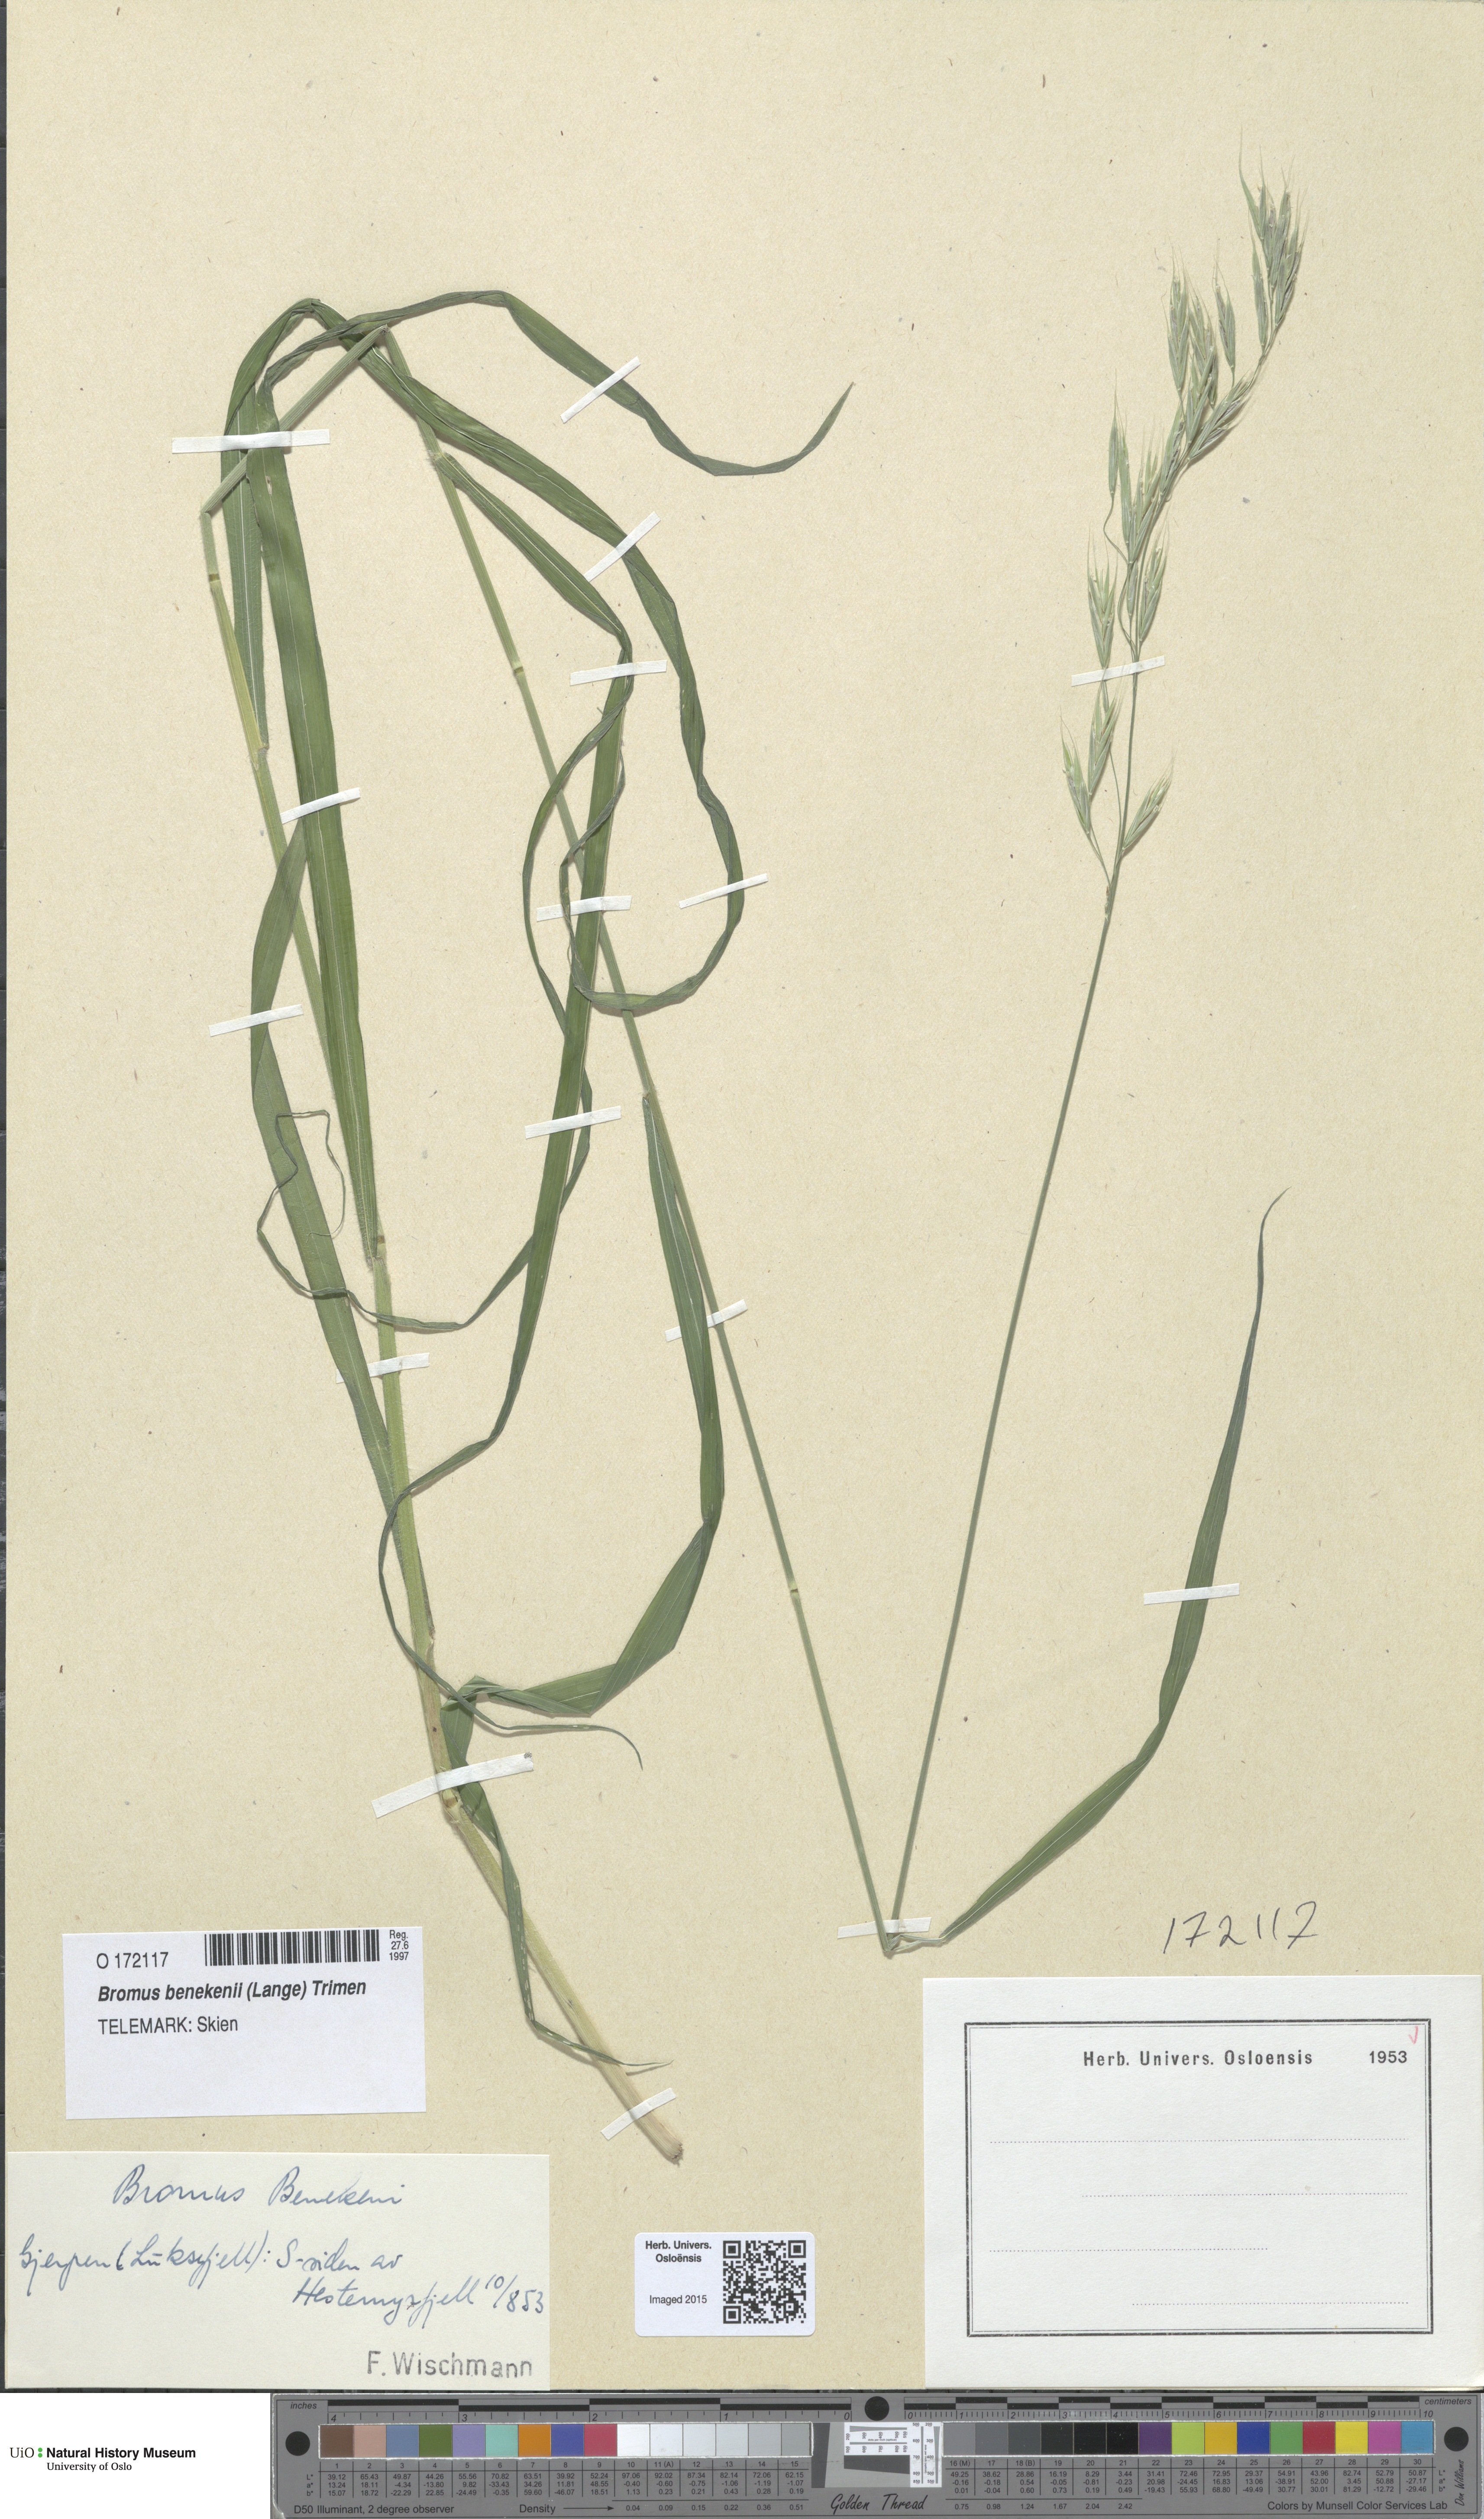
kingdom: Plantae
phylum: Tracheophyta
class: Liliopsida
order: Poales
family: Poaceae
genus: Bromus
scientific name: Bromus benekenii
